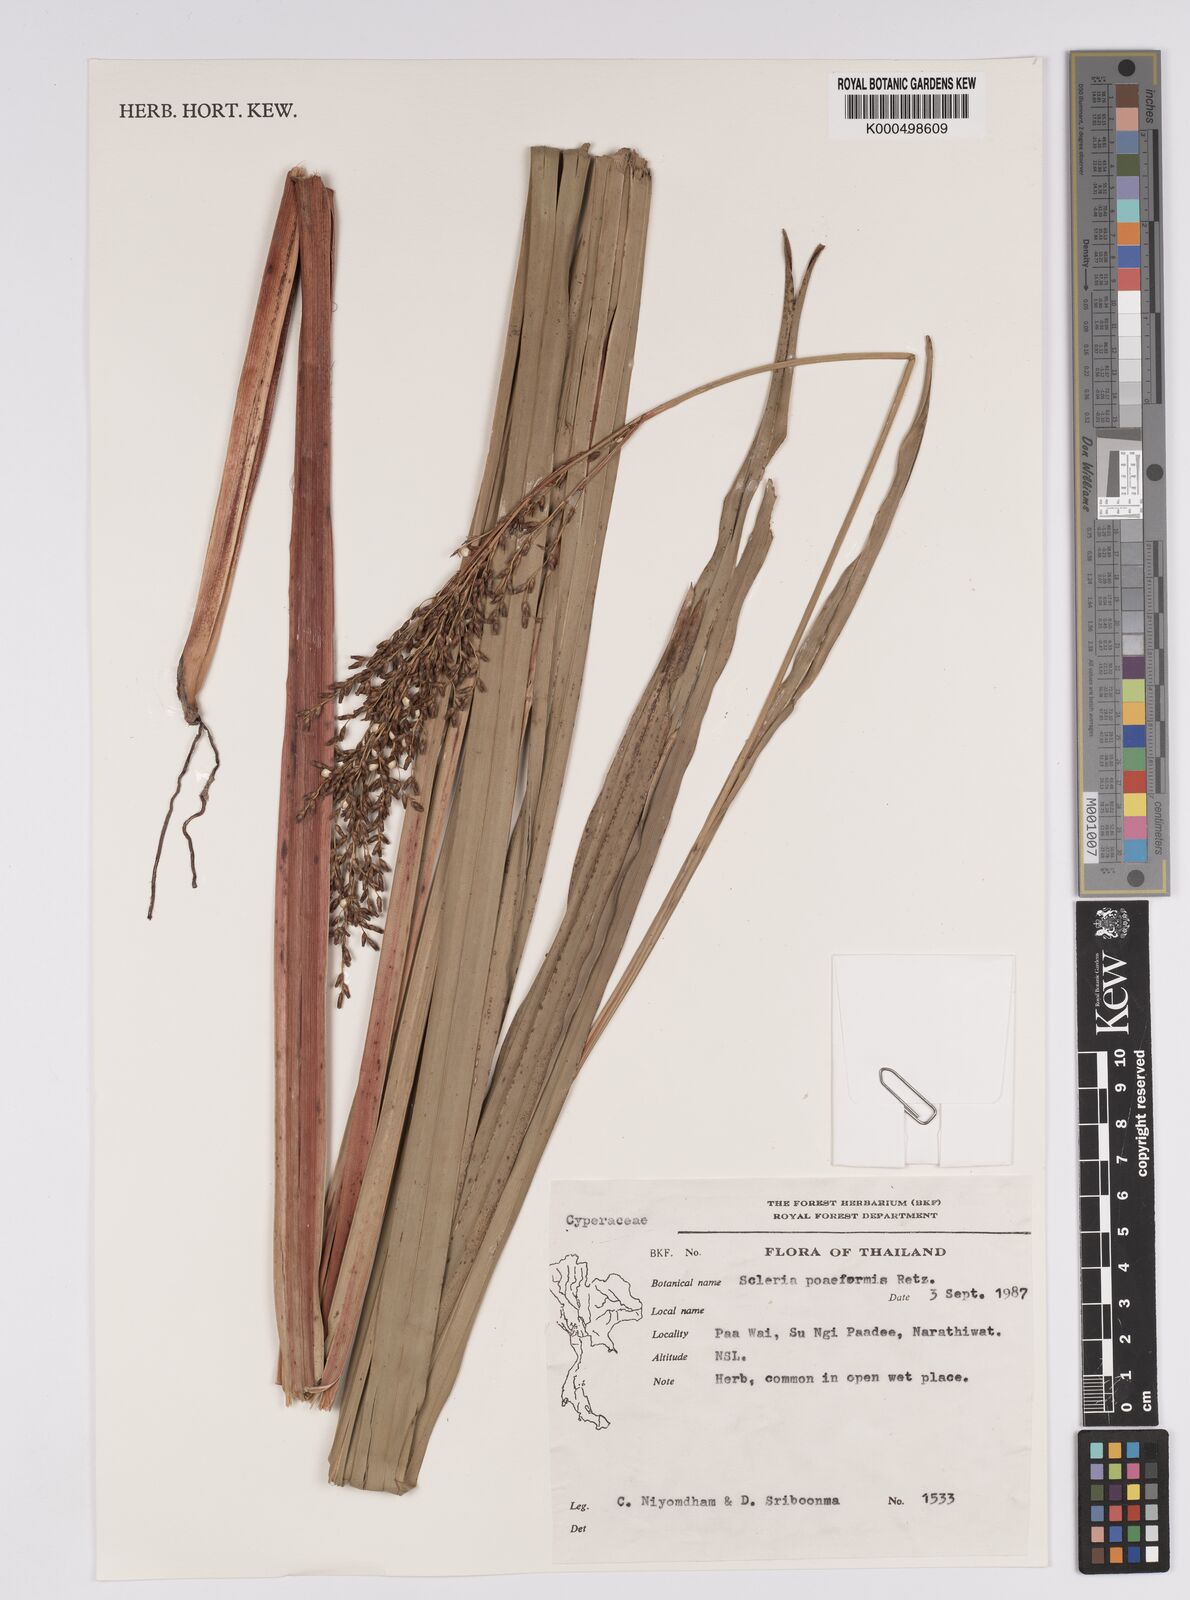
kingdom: Plantae
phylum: Tracheophyta
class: Liliopsida
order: Poales
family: Cyperaceae
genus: Scleria
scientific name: Scleria poiformis
